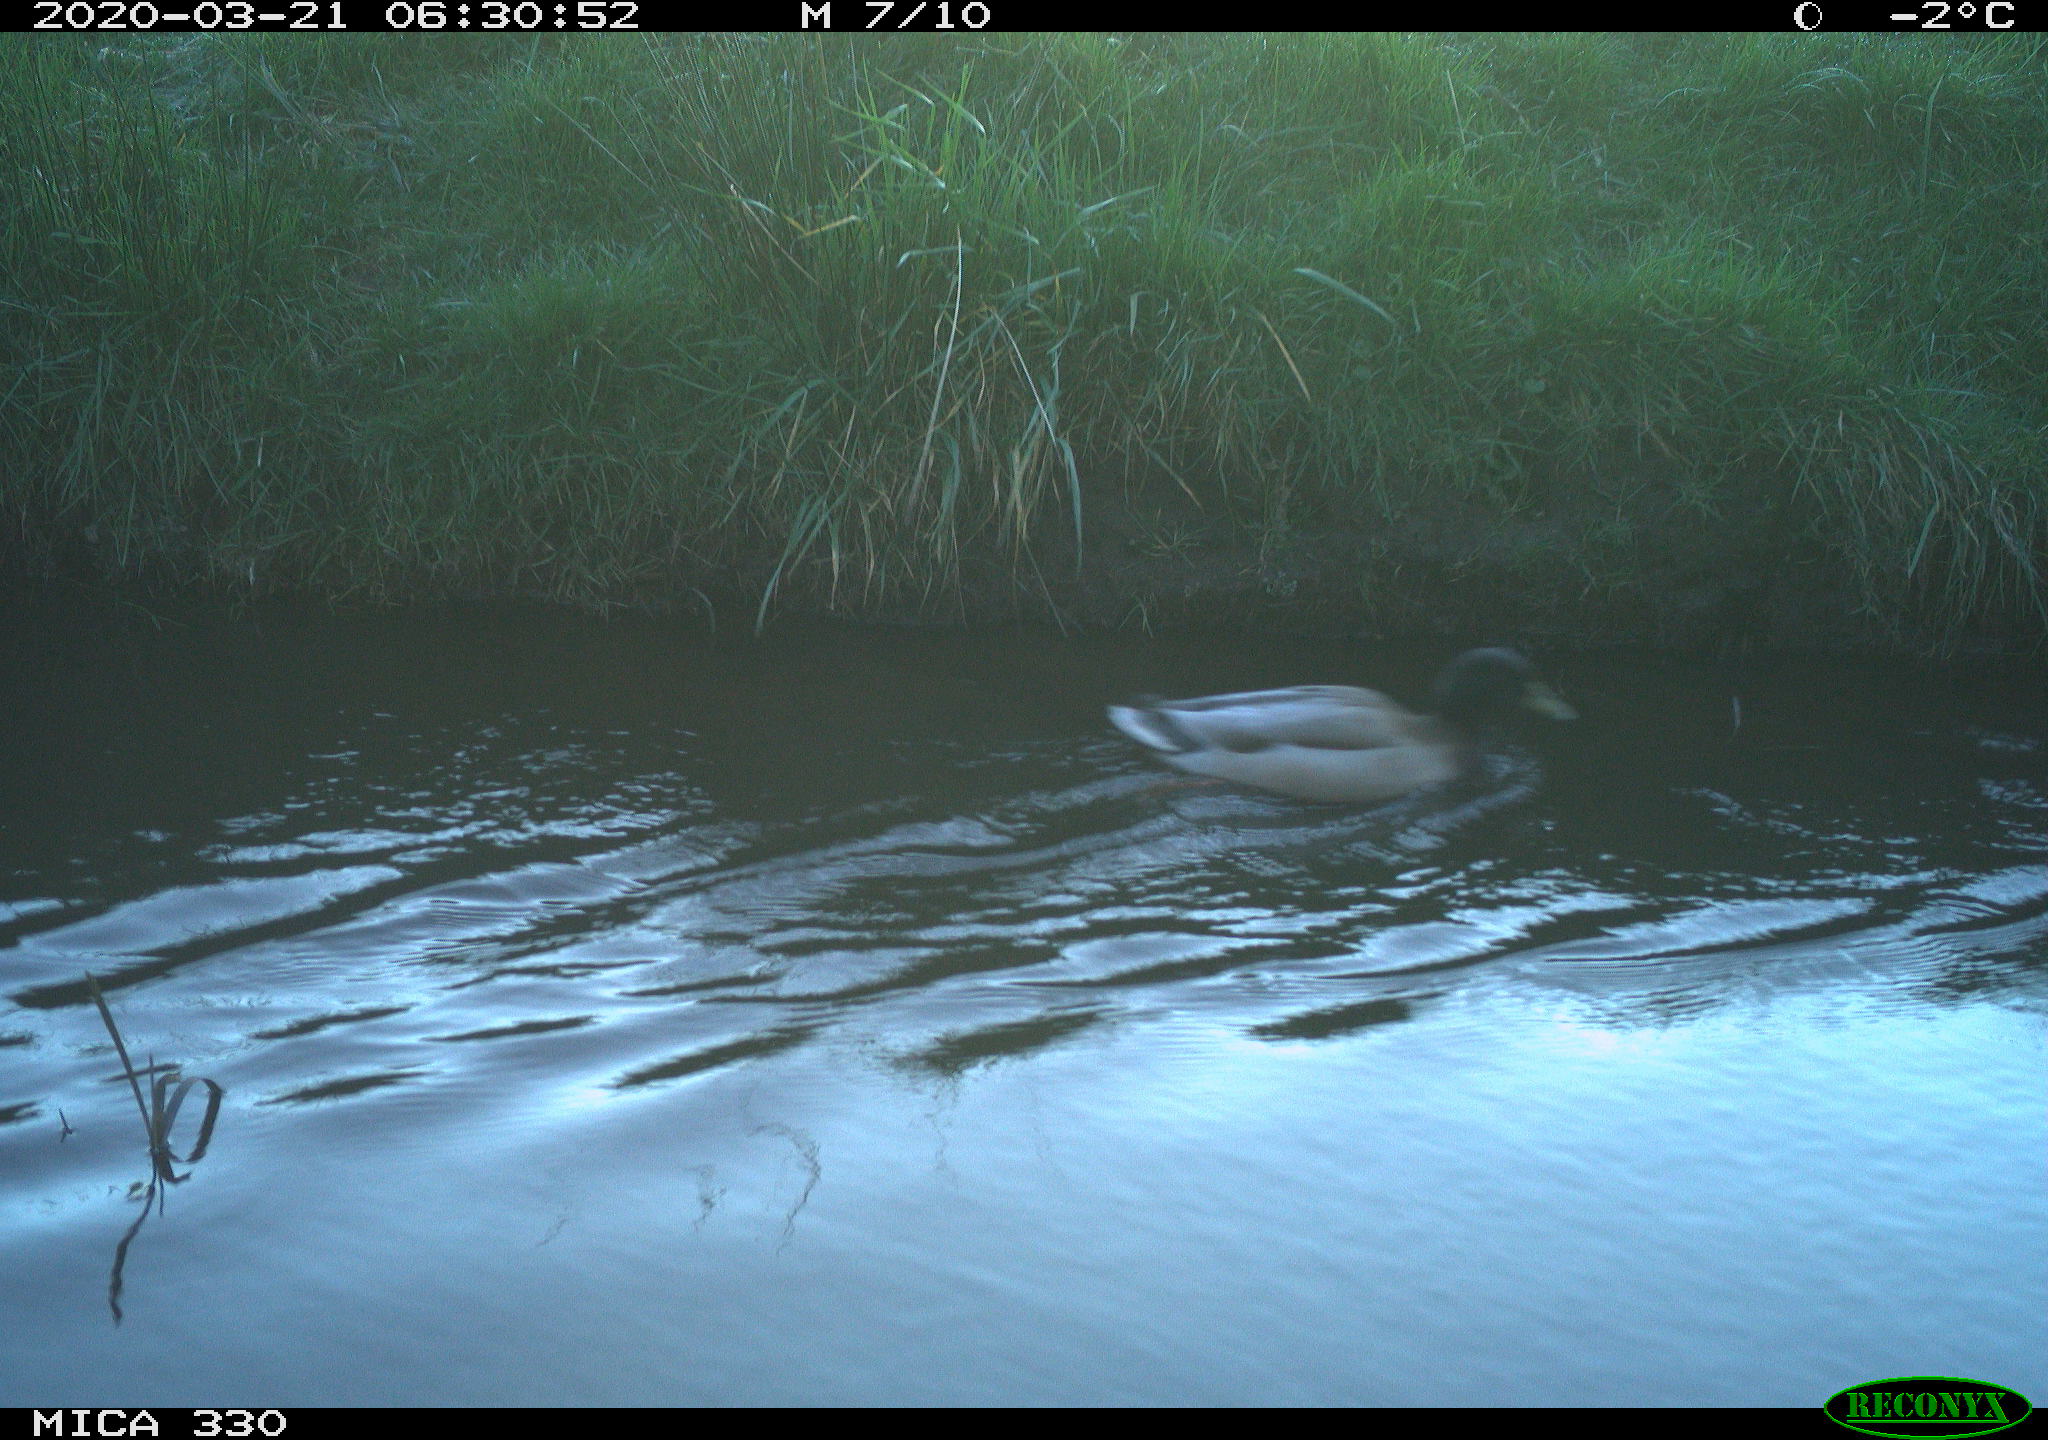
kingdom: Animalia
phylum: Chordata
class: Aves
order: Anseriformes
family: Anatidae
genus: Anas
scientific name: Anas platyrhynchos
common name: Mallard
